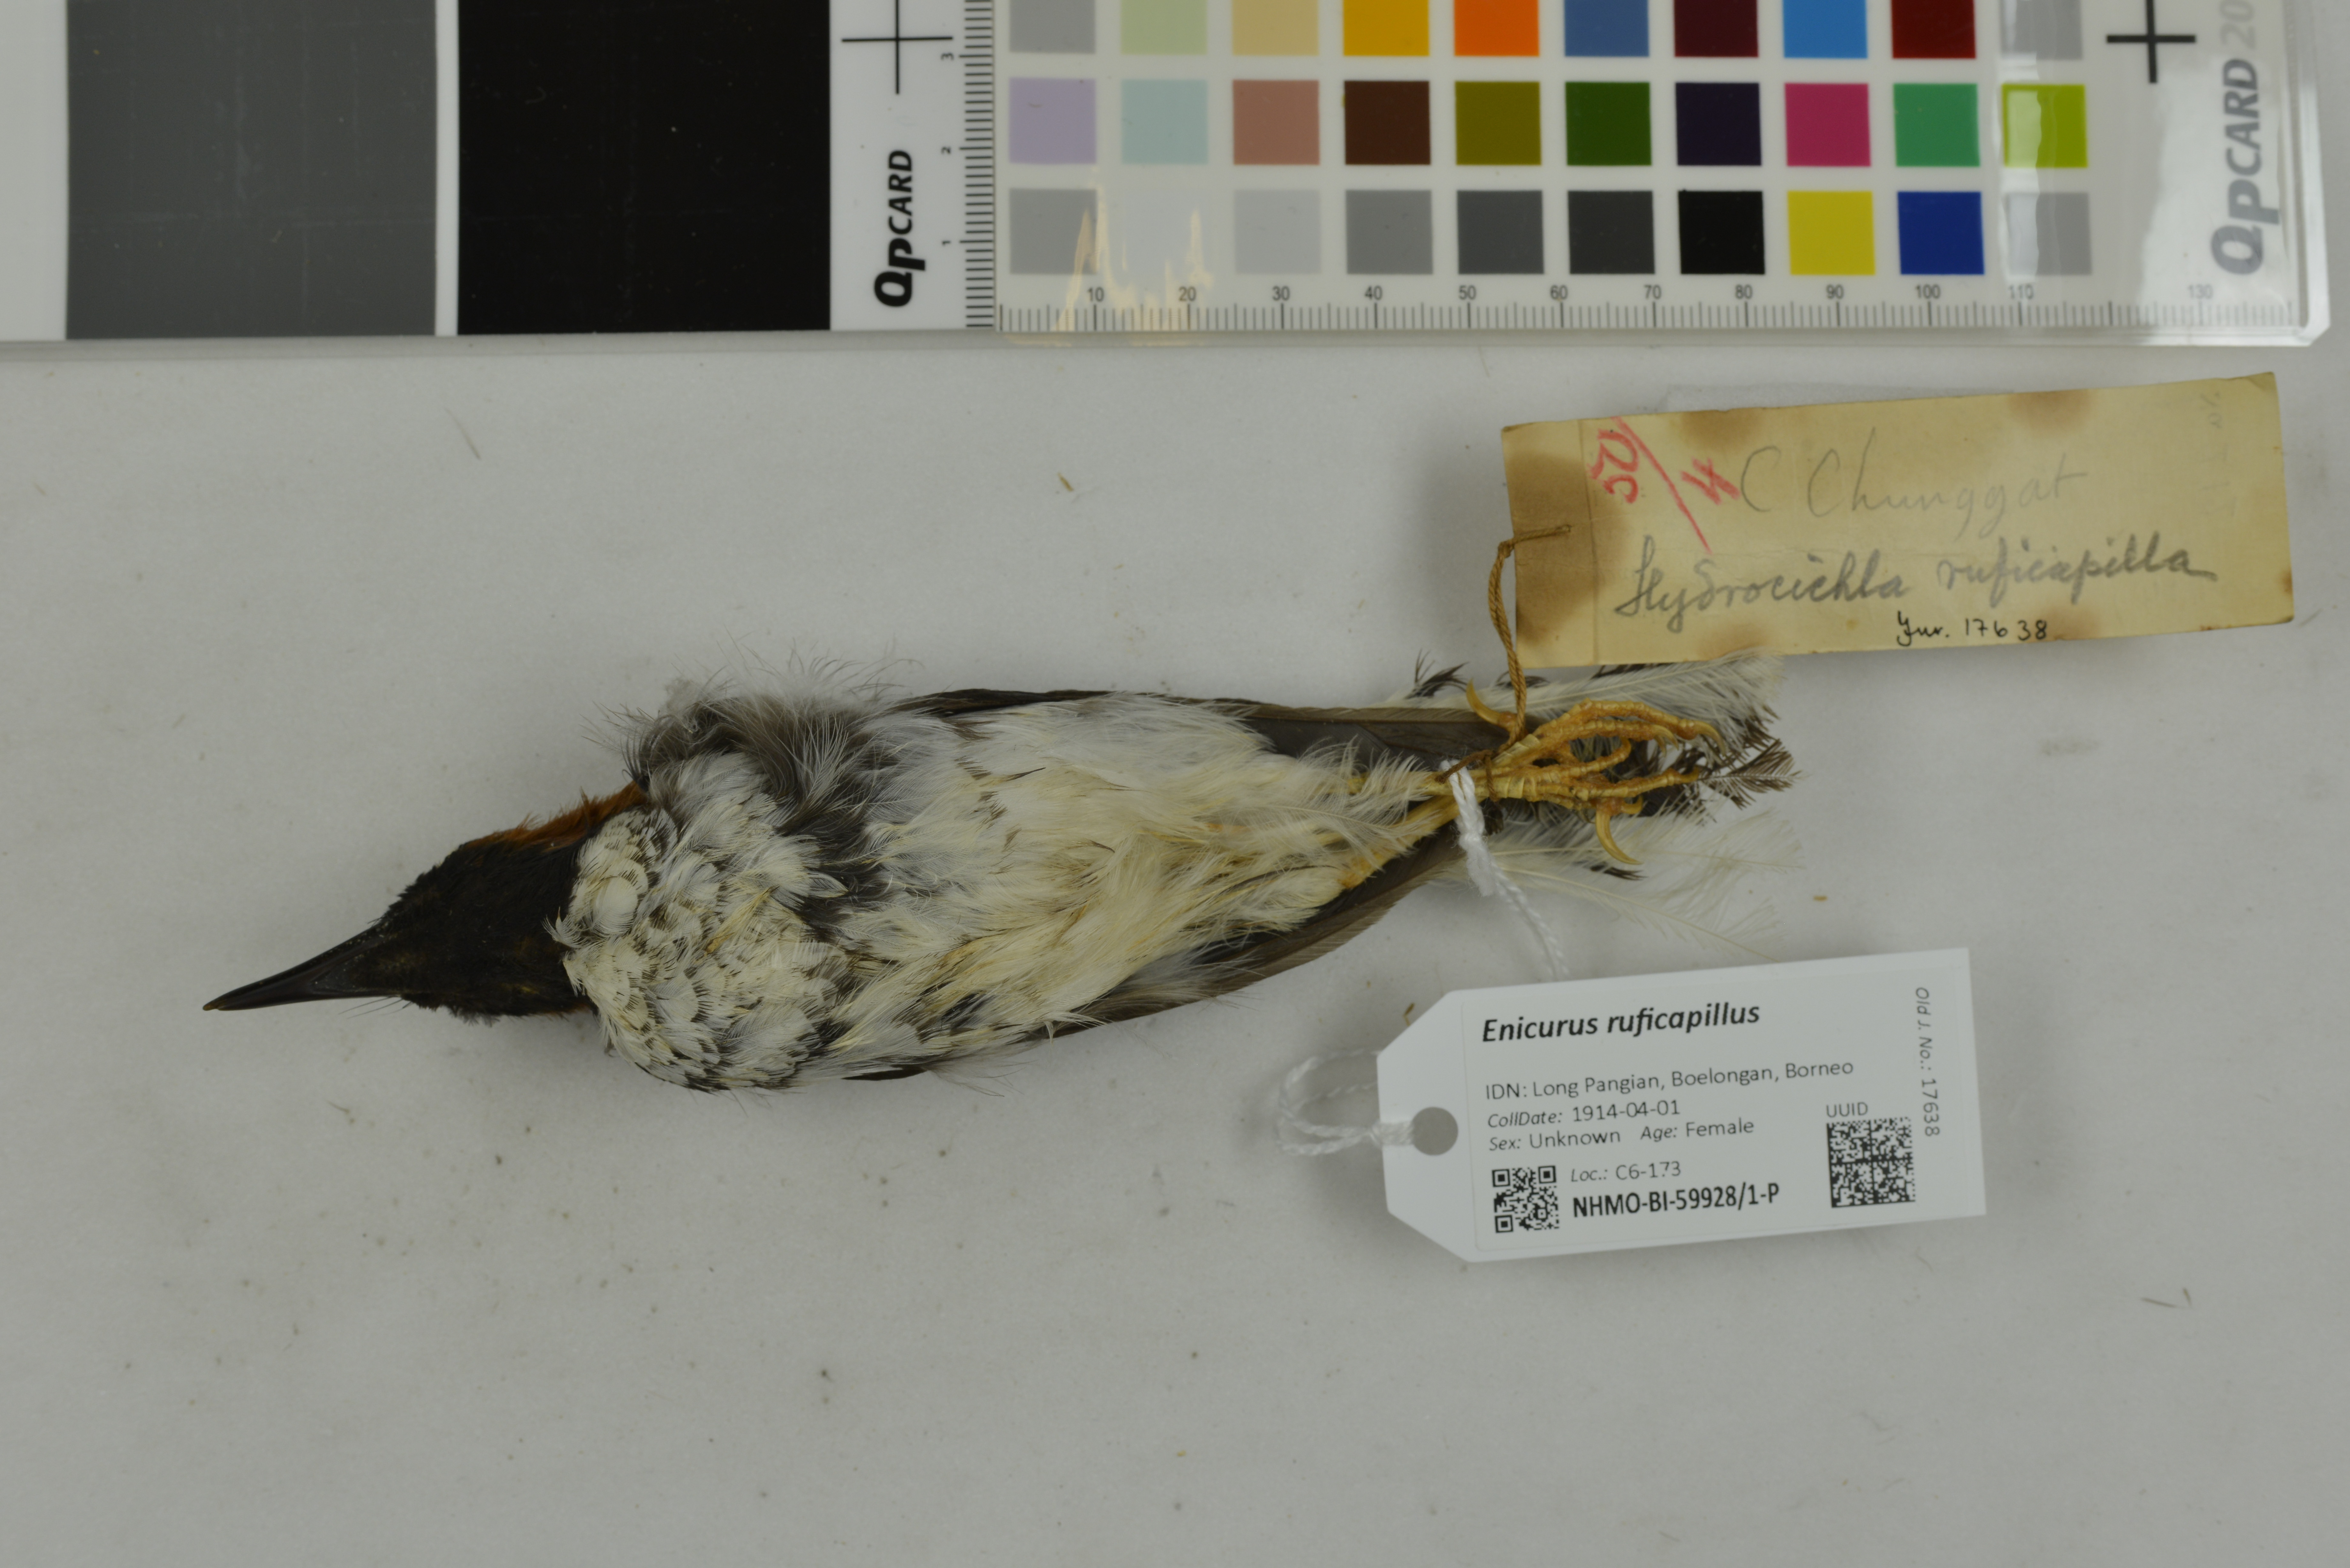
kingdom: Animalia
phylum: Chordata
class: Aves
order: Passeriformes
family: Muscicapidae
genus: Enicurus
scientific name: Enicurus ruficapillus
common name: Chestnut-naped forktail
